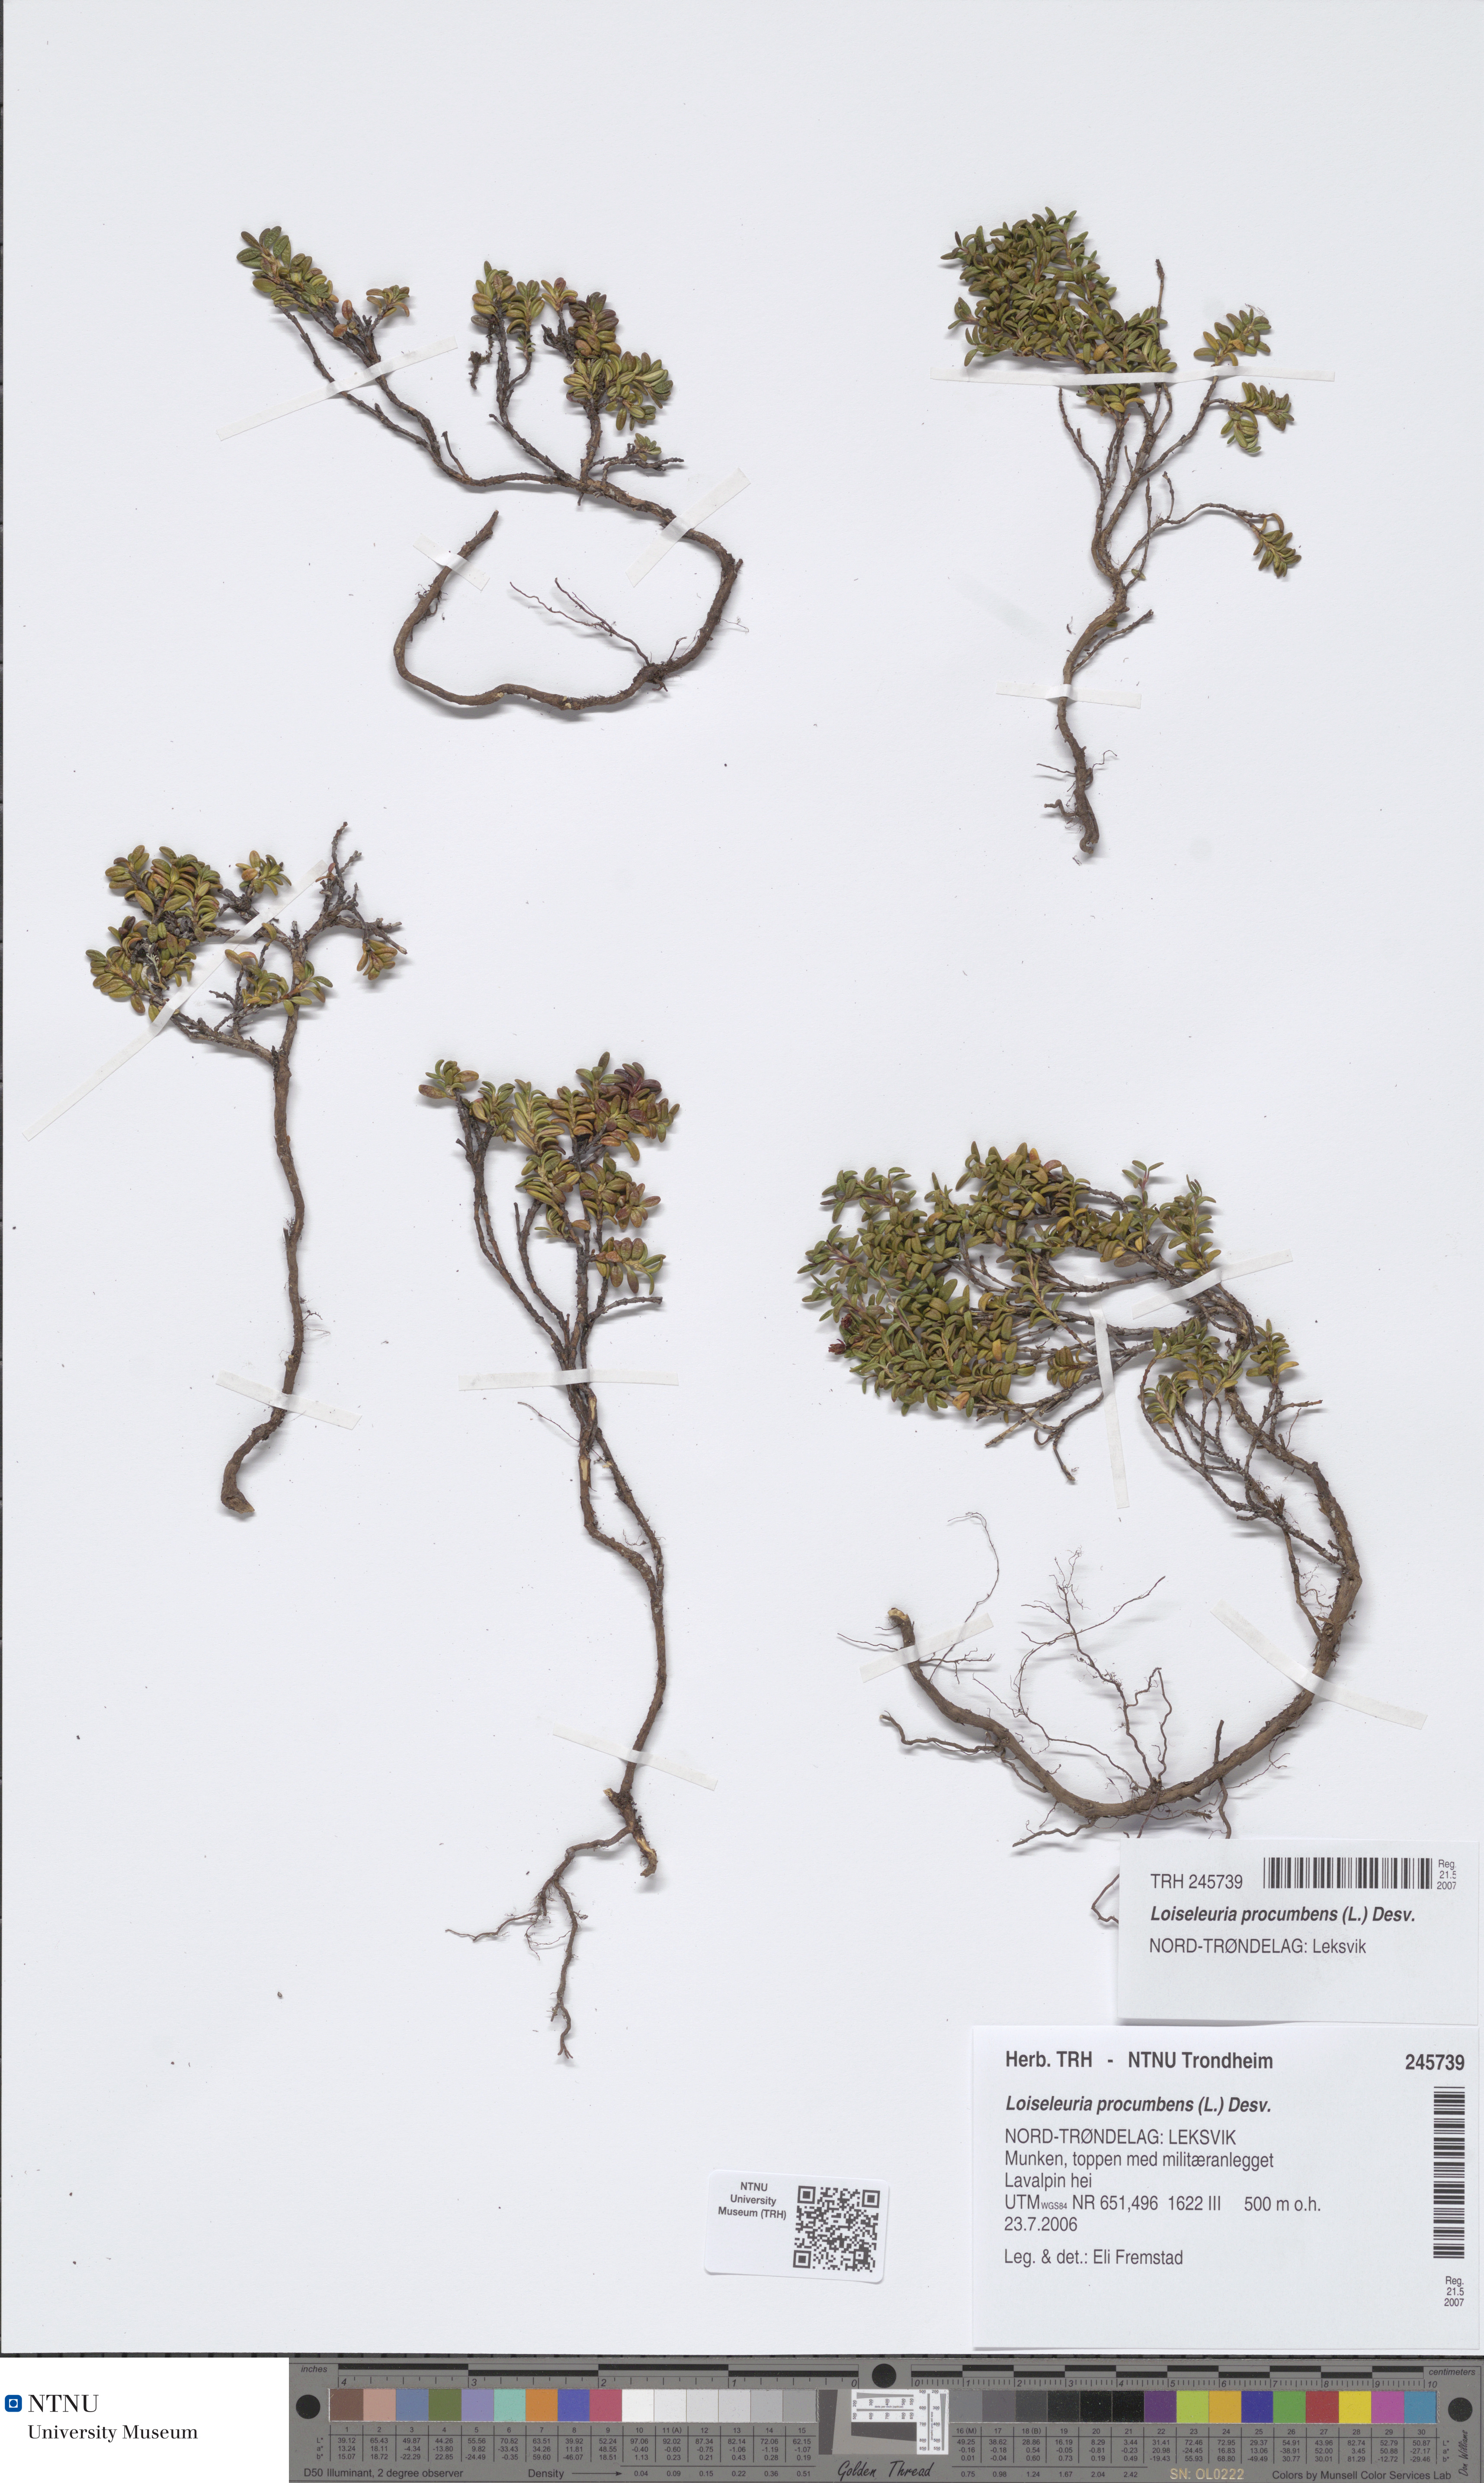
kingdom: Plantae
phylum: Tracheophyta
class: Magnoliopsida
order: Ericales
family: Ericaceae
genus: Kalmia
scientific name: Kalmia procumbens
